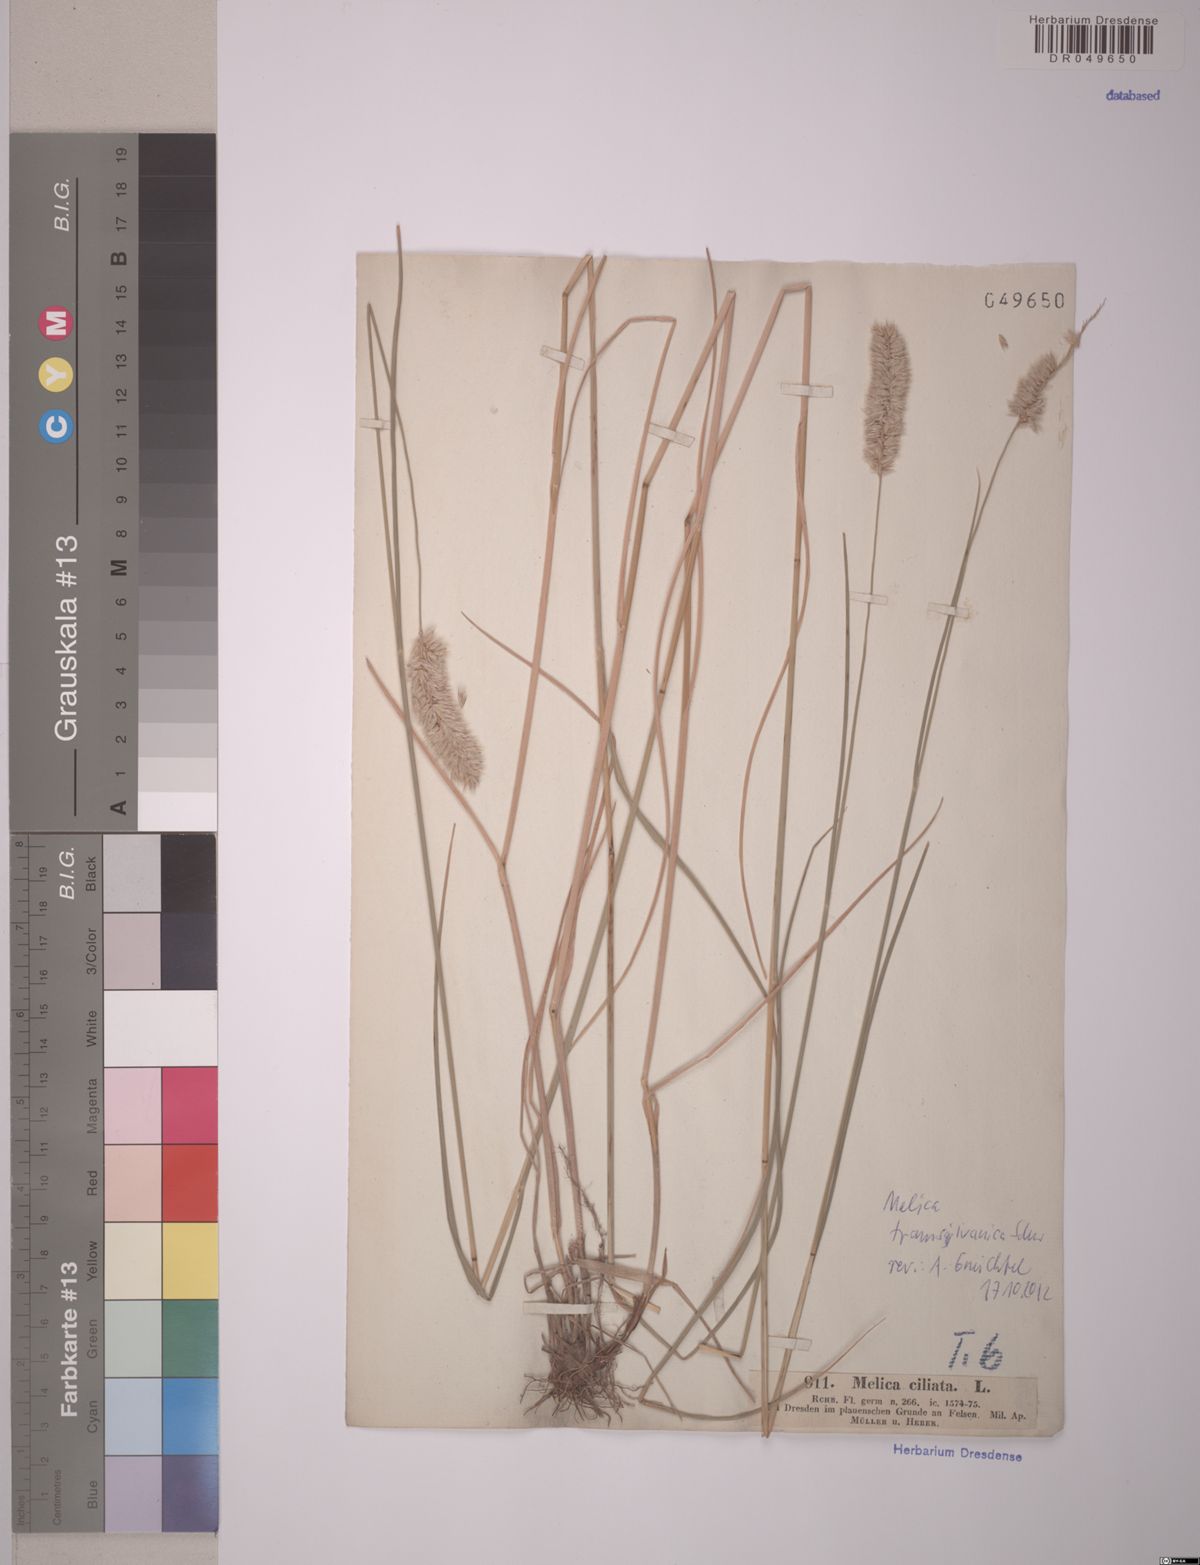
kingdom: Plantae
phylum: Tracheophyta
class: Liliopsida
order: Poales
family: Poaceae
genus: Melica
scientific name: Melica transsilvanica
